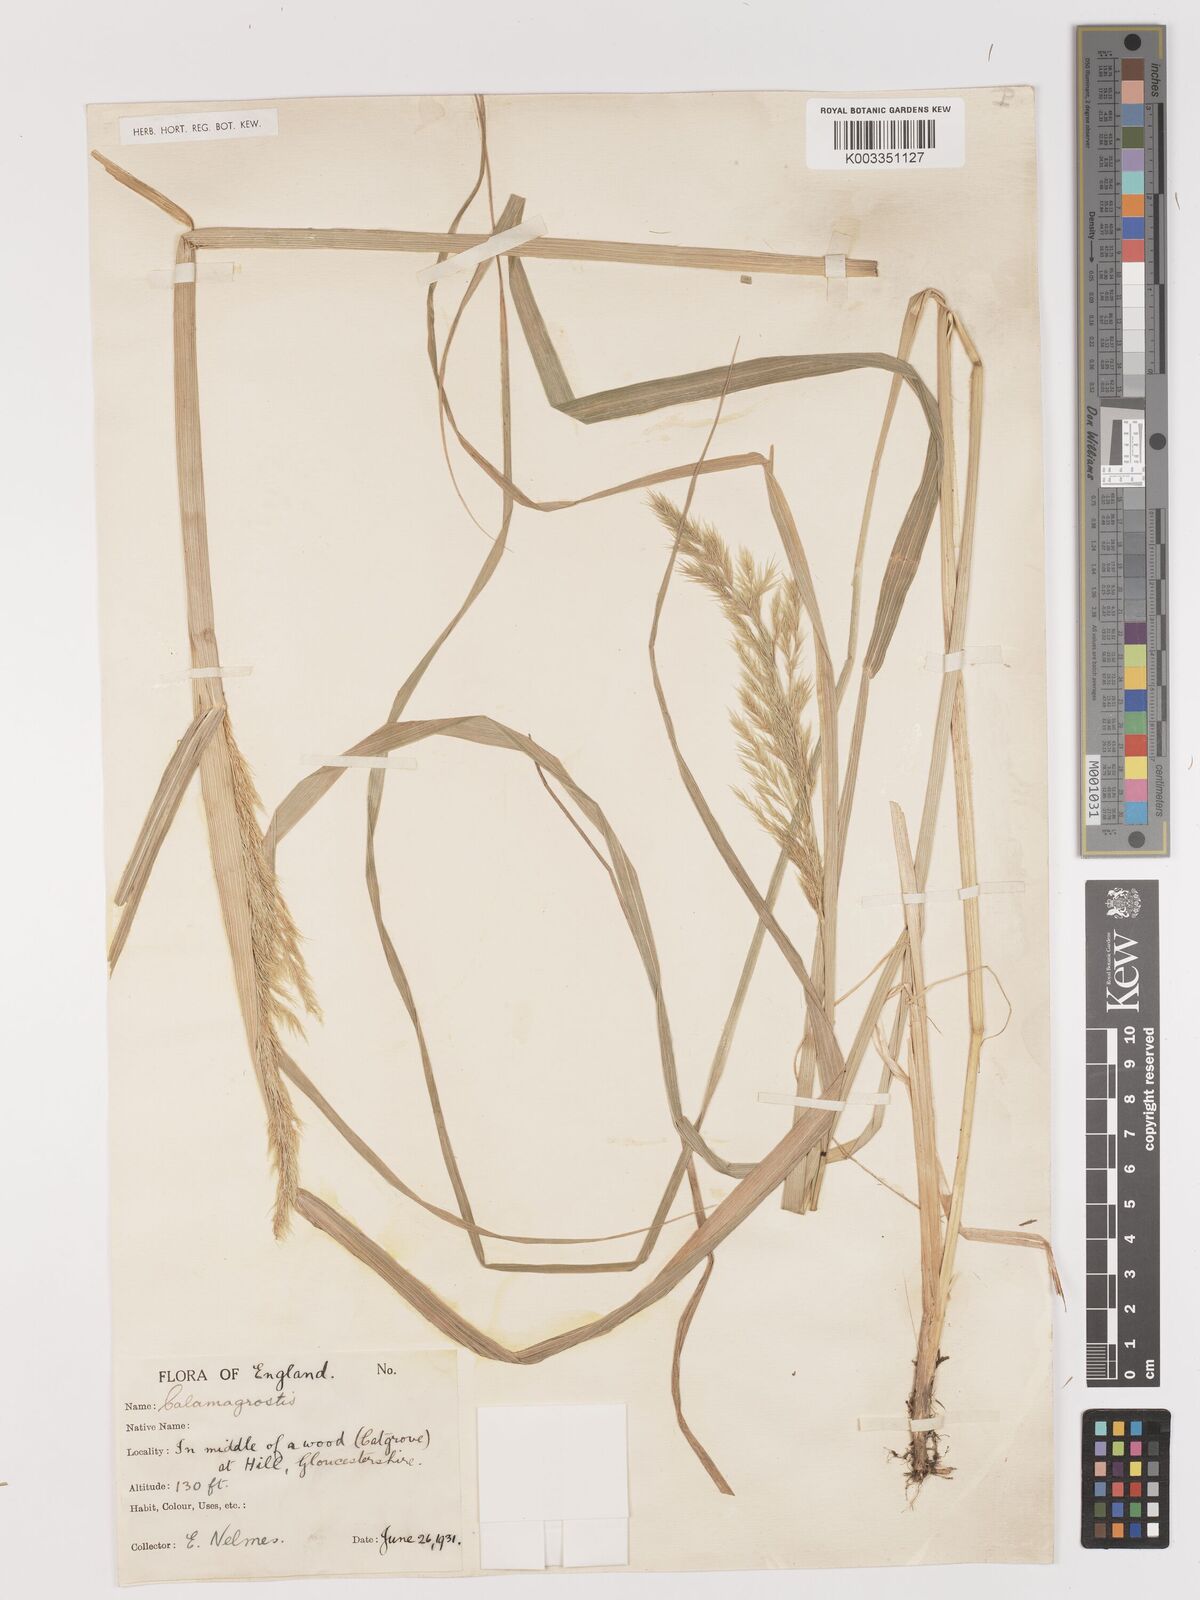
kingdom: Plantae
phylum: Tracheophyta
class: Liliopsida
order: Poales
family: Poaceae
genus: Calamagrostis
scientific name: Calamagrostis
